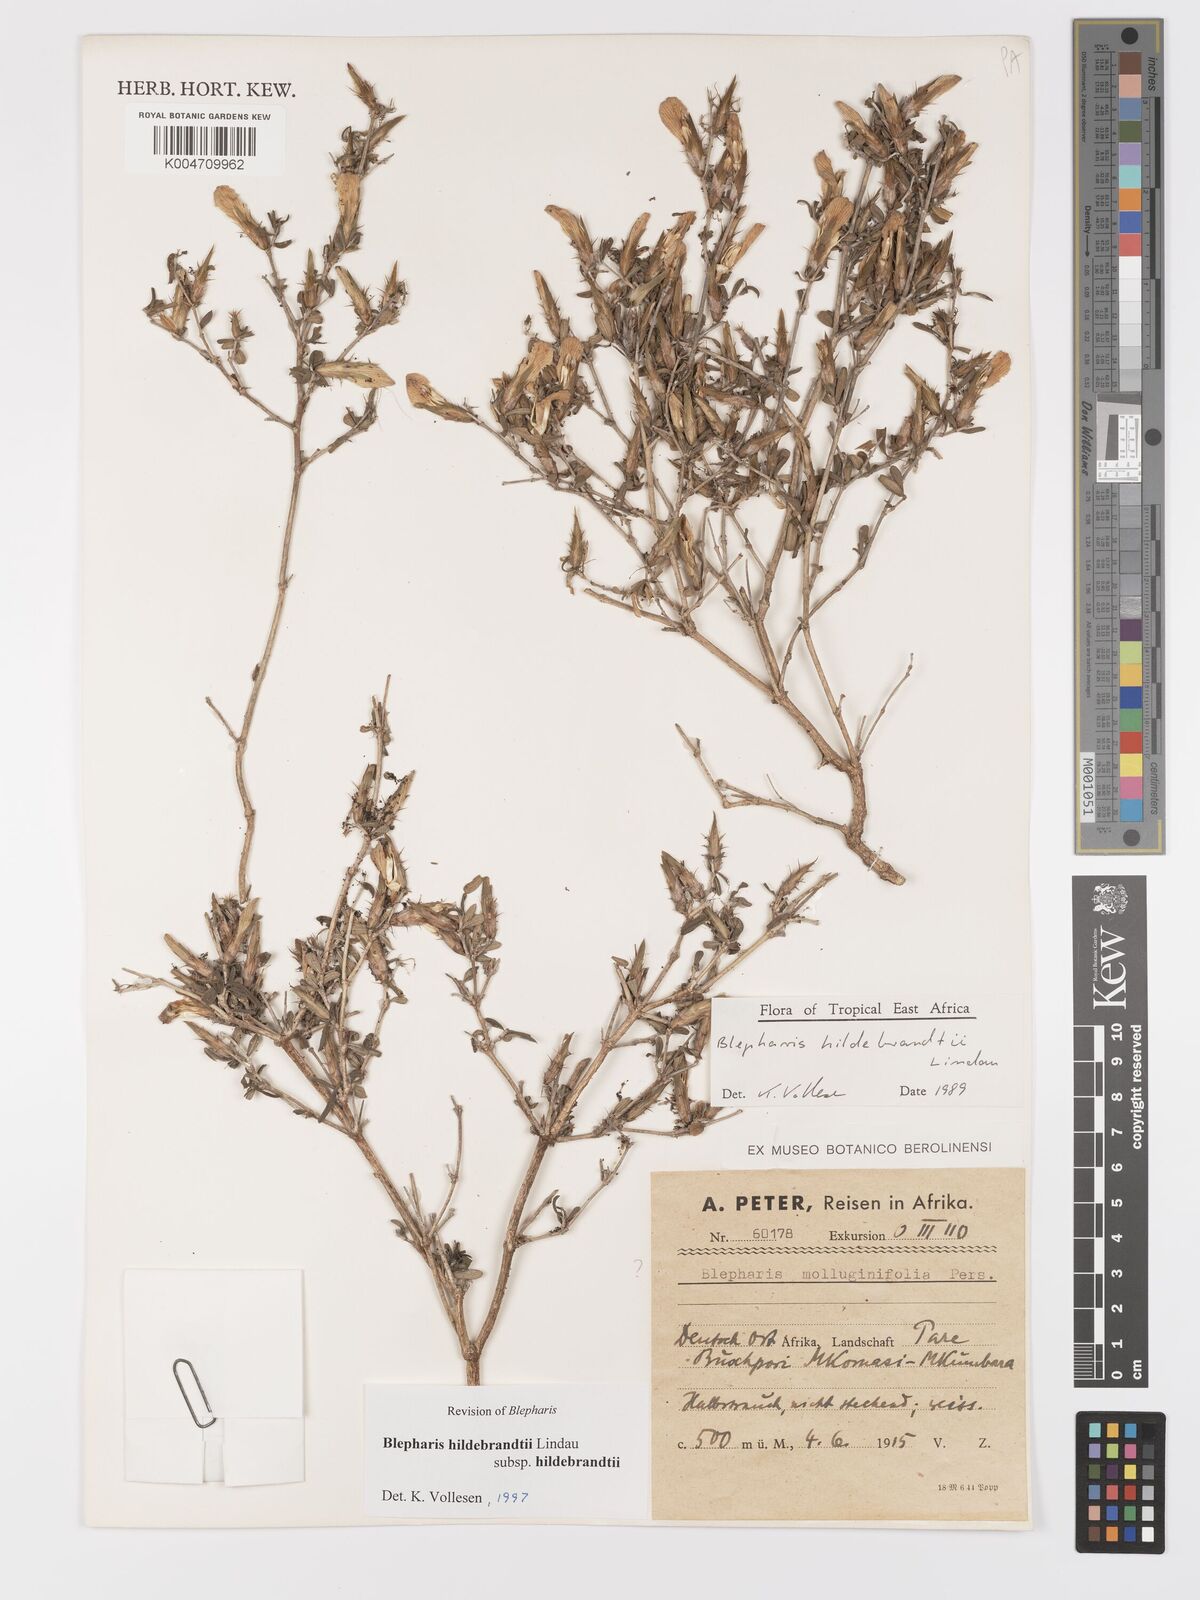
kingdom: Plantae
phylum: Tracheophyta
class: Magnoliopsida
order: Lamiales
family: Acanthaceae
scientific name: Acanthaceae
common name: Acanthaceae
